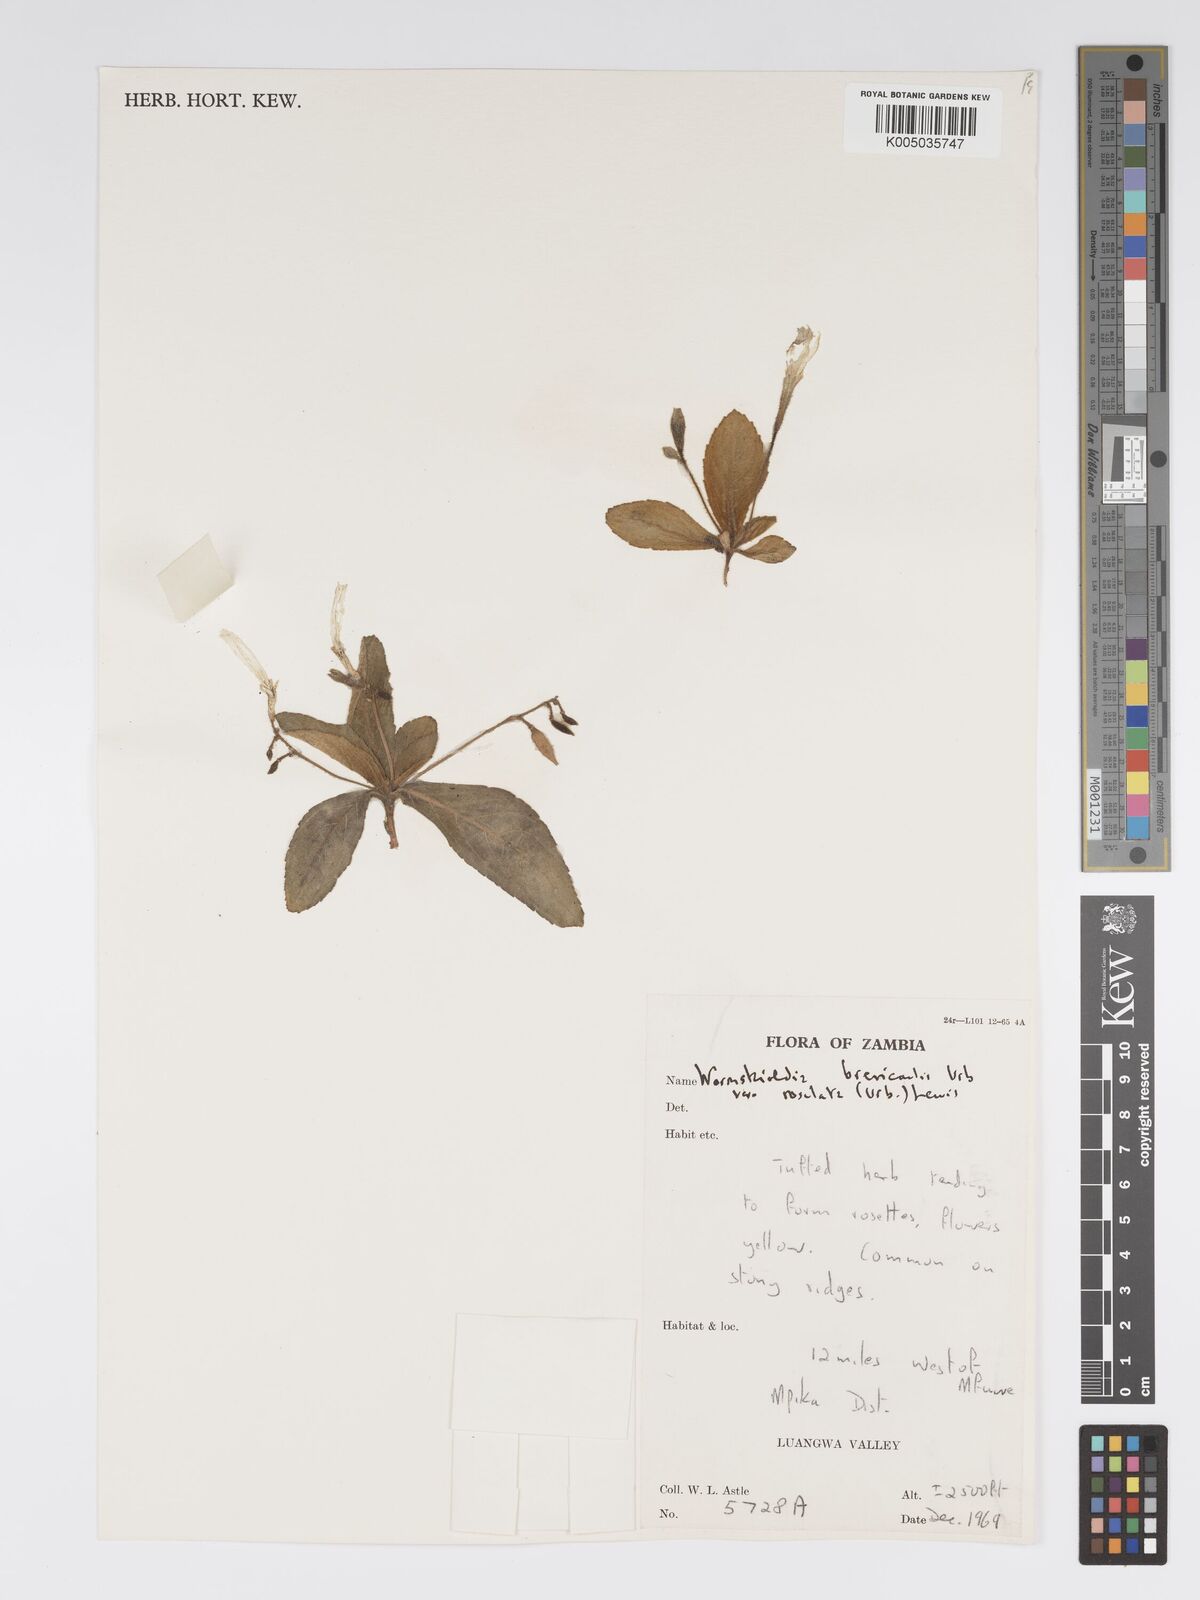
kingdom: Plantae
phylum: Tracheophyta
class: Magnoliopsida
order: Malpighiales
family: Turneraceae
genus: Tricliceras
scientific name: Tricliceras brevicaule
